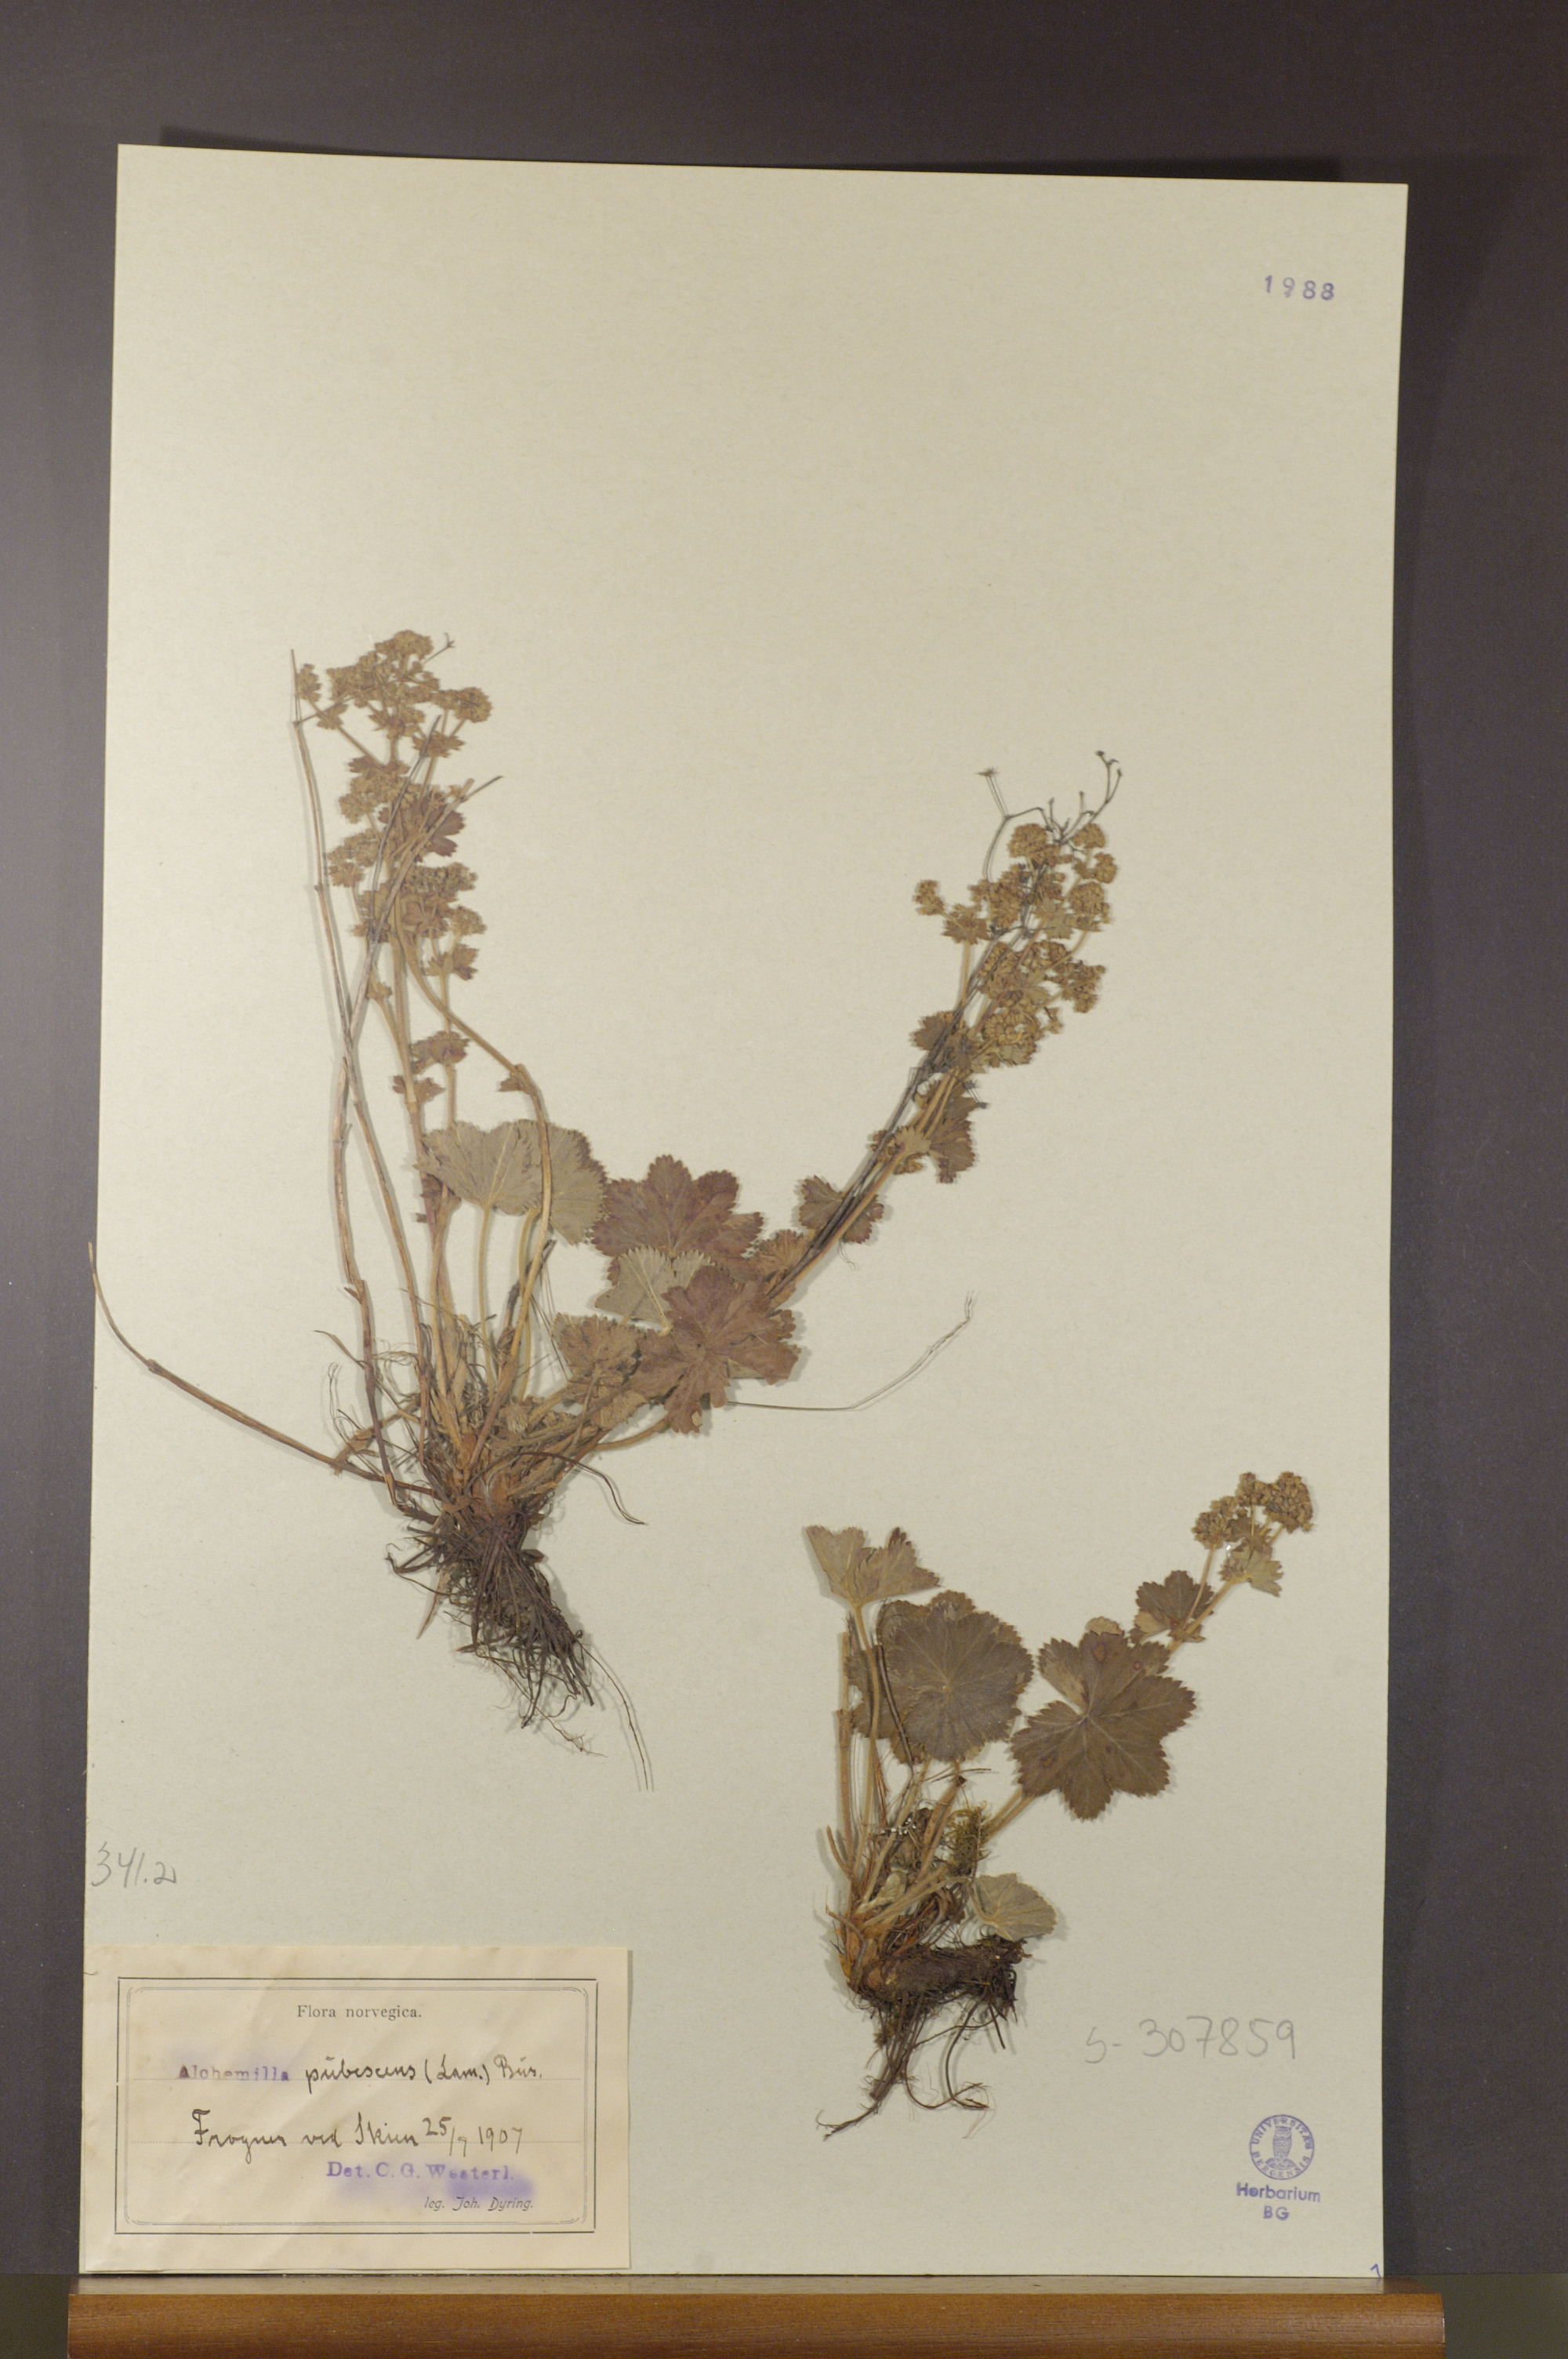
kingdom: Plantae
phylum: Tracheophyta
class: Magnoliopsida
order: Rosales
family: Rosaceae
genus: Alchemilla
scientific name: Alchemilla glaucescens
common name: Silky lady's mantle
